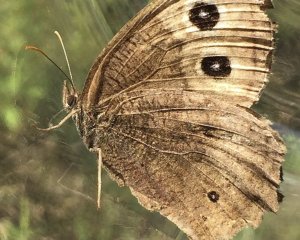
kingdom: Animalia
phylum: Arthropoda
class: Insecta
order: Lepidoptera
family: Nymphalidae
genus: Cercyonis
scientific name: Cercyonis pegala
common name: Common Wood-Nymph
